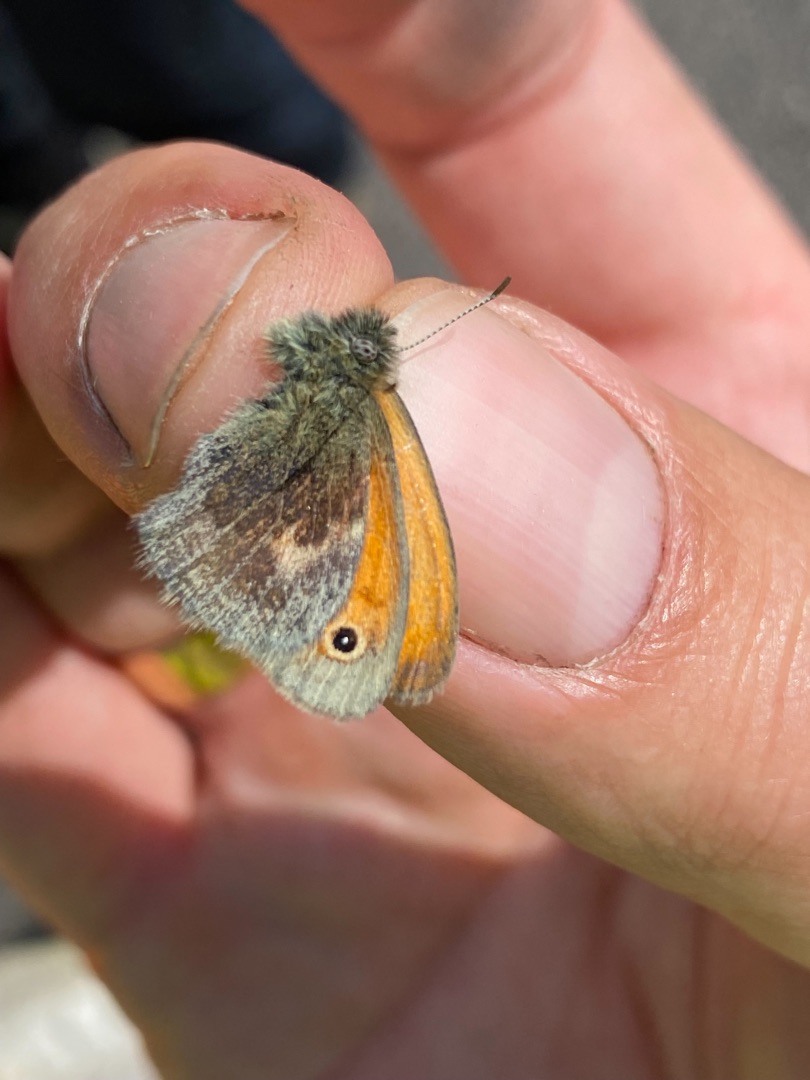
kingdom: Animalia
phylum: Arthropoda
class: Insecta
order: Lepidoptera
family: Nymphalidae
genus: Coenonympha
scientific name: Coenonympha pamphilus
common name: Okkergul randøje
